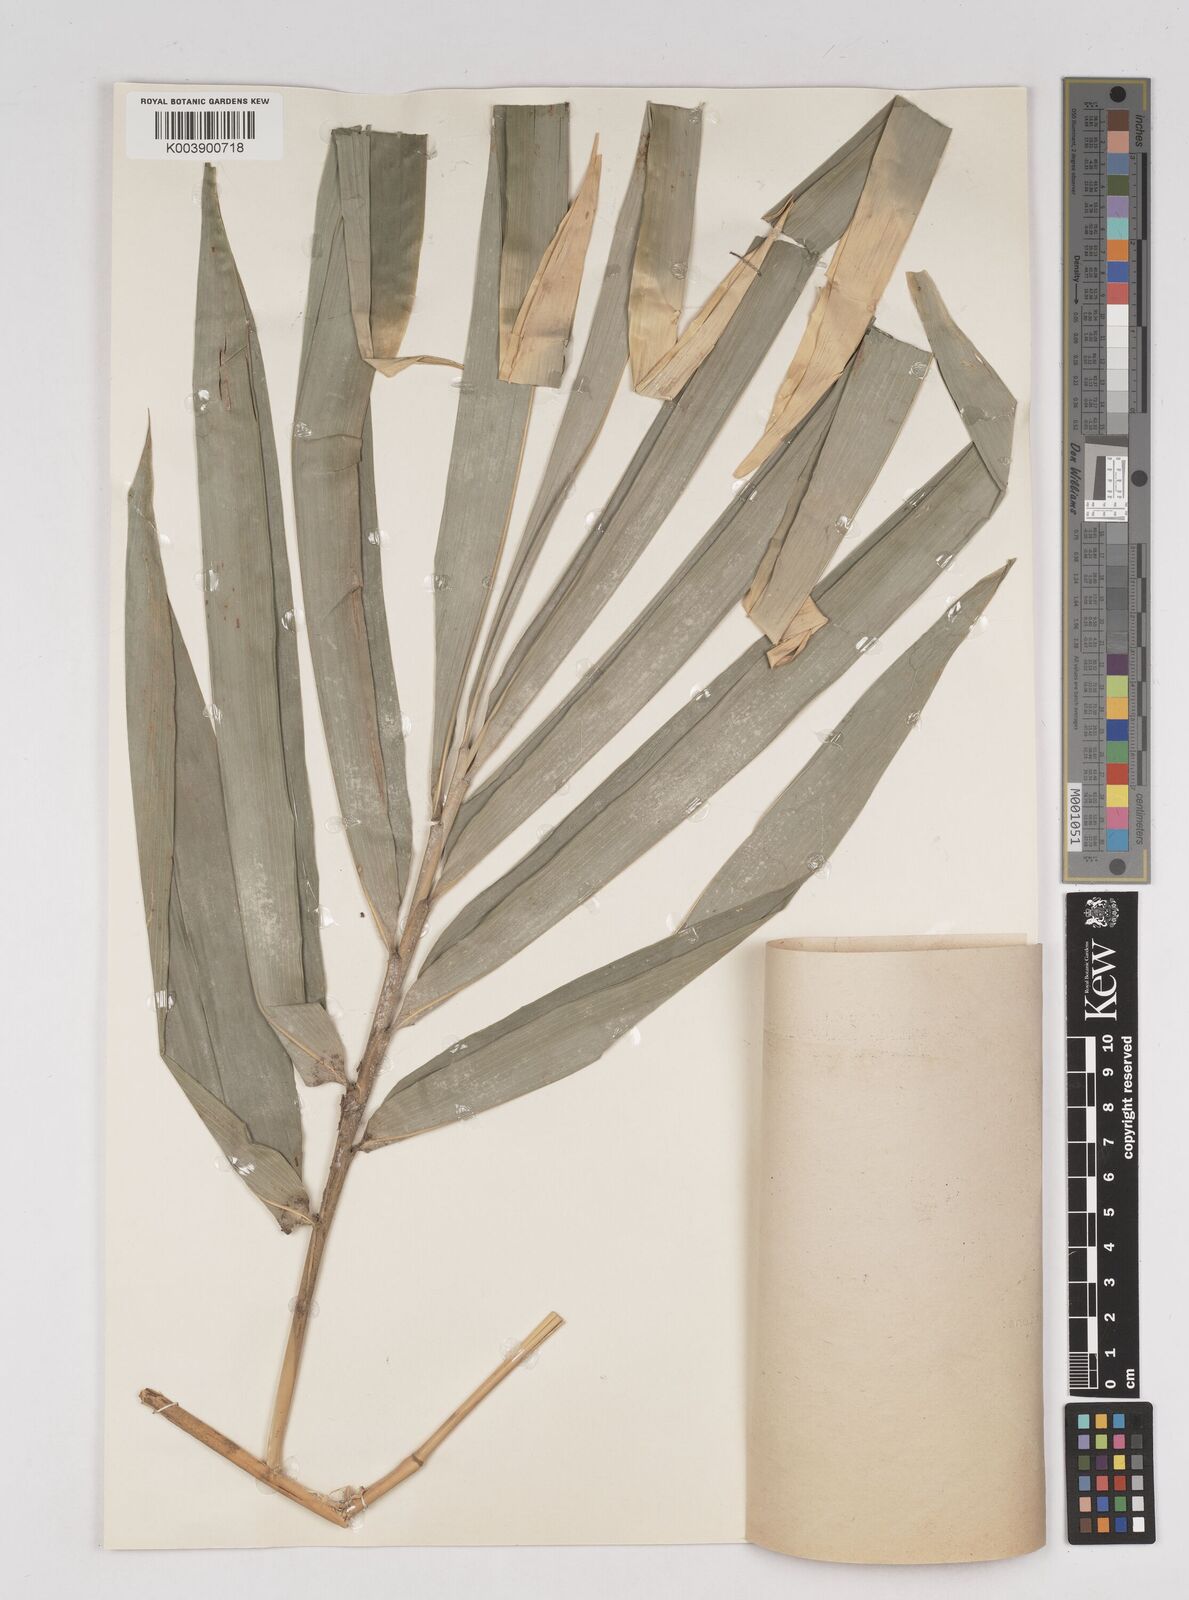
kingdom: Plantae
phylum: Tracheophyta
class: Liliopsida
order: Poales
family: Poaceae
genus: Gigantochloa
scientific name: Gigantochloa
